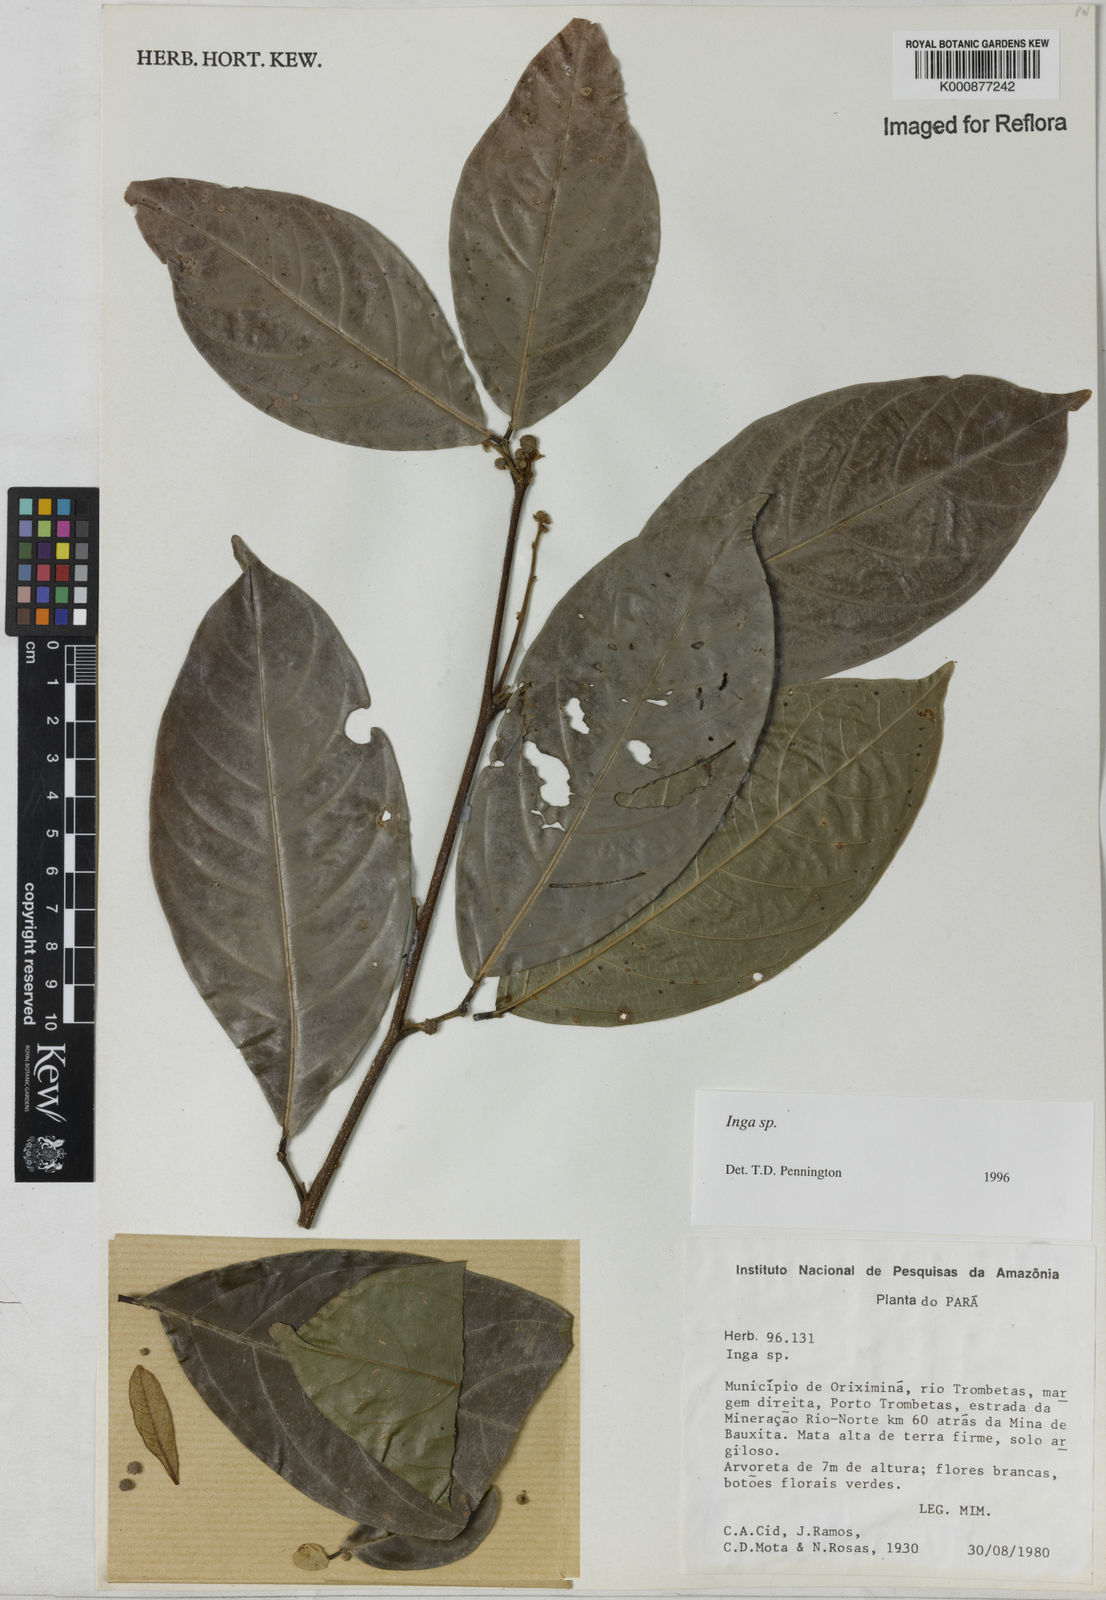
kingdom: Plantae
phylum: Tracheophyta
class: Magnoliopsida
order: Fabales
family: Fabaceae
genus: Inga
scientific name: Inga
